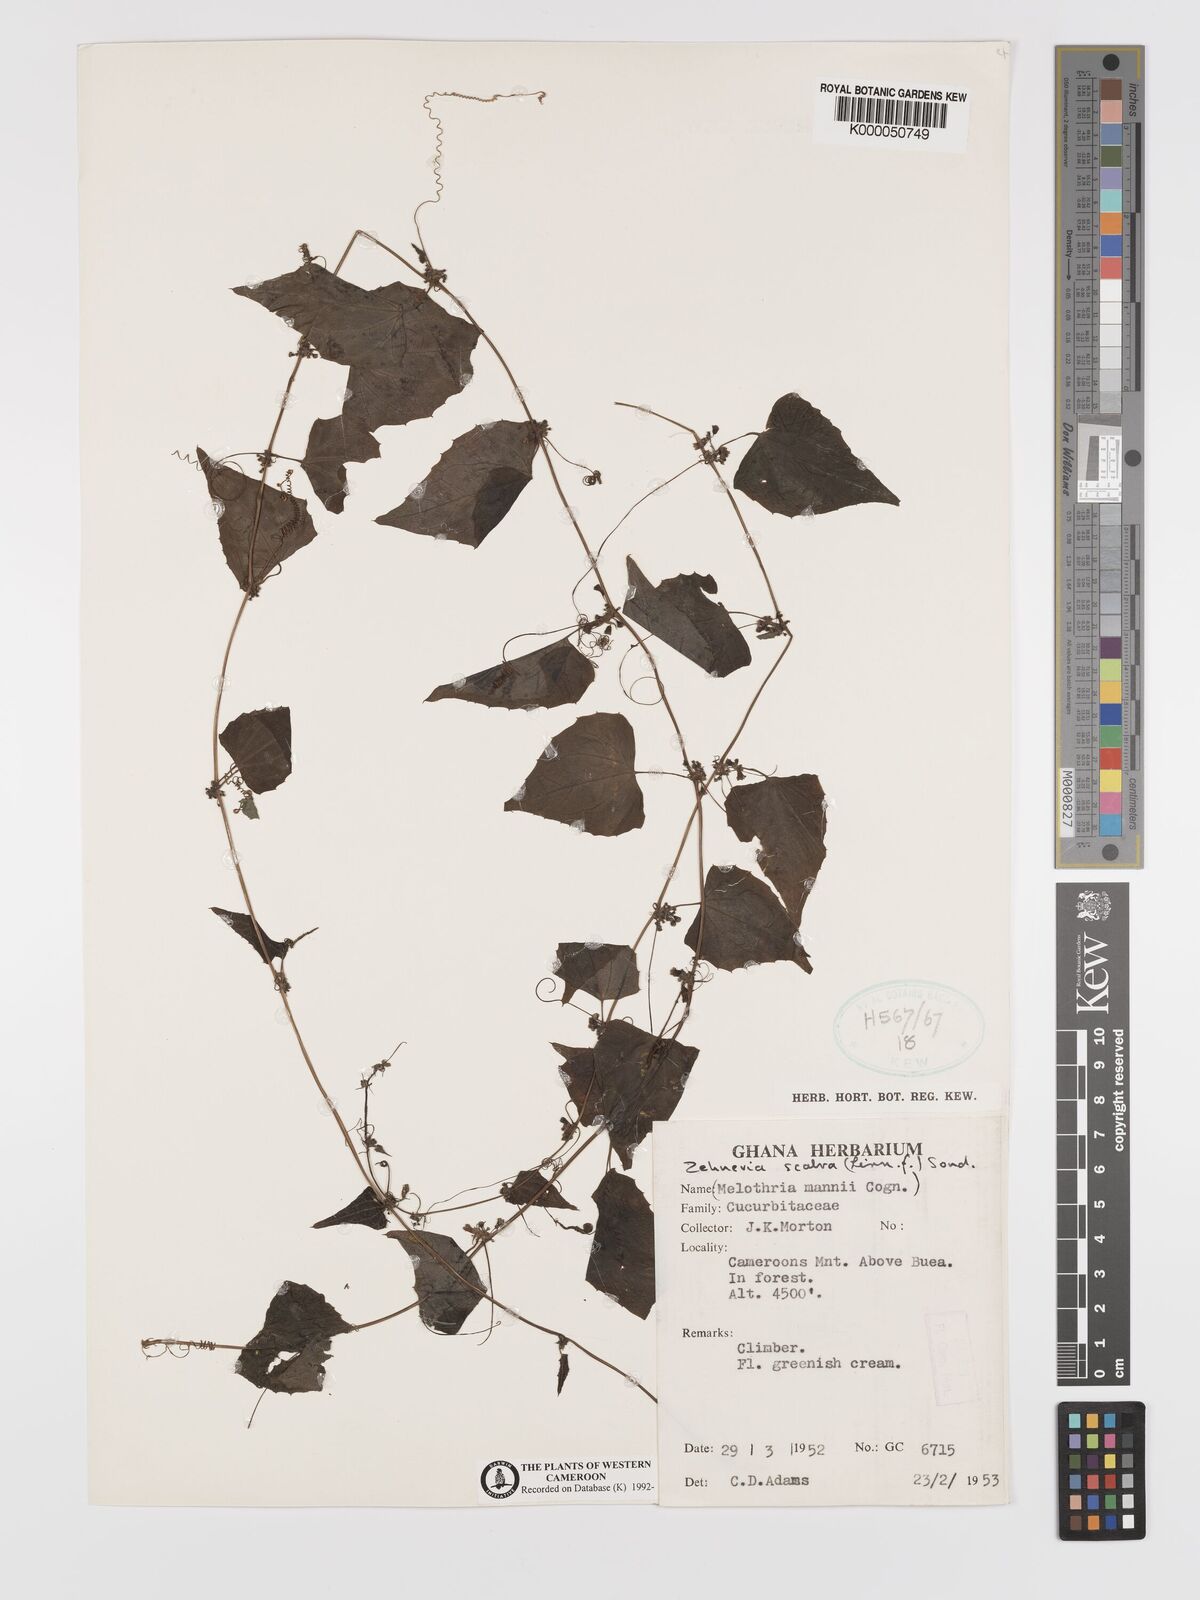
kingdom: Plantae
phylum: Tracheophyta
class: Magnoliopsida
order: Cucurbitales
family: Cucurbitaceae
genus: Zehneria
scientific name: Zehneria scabra
